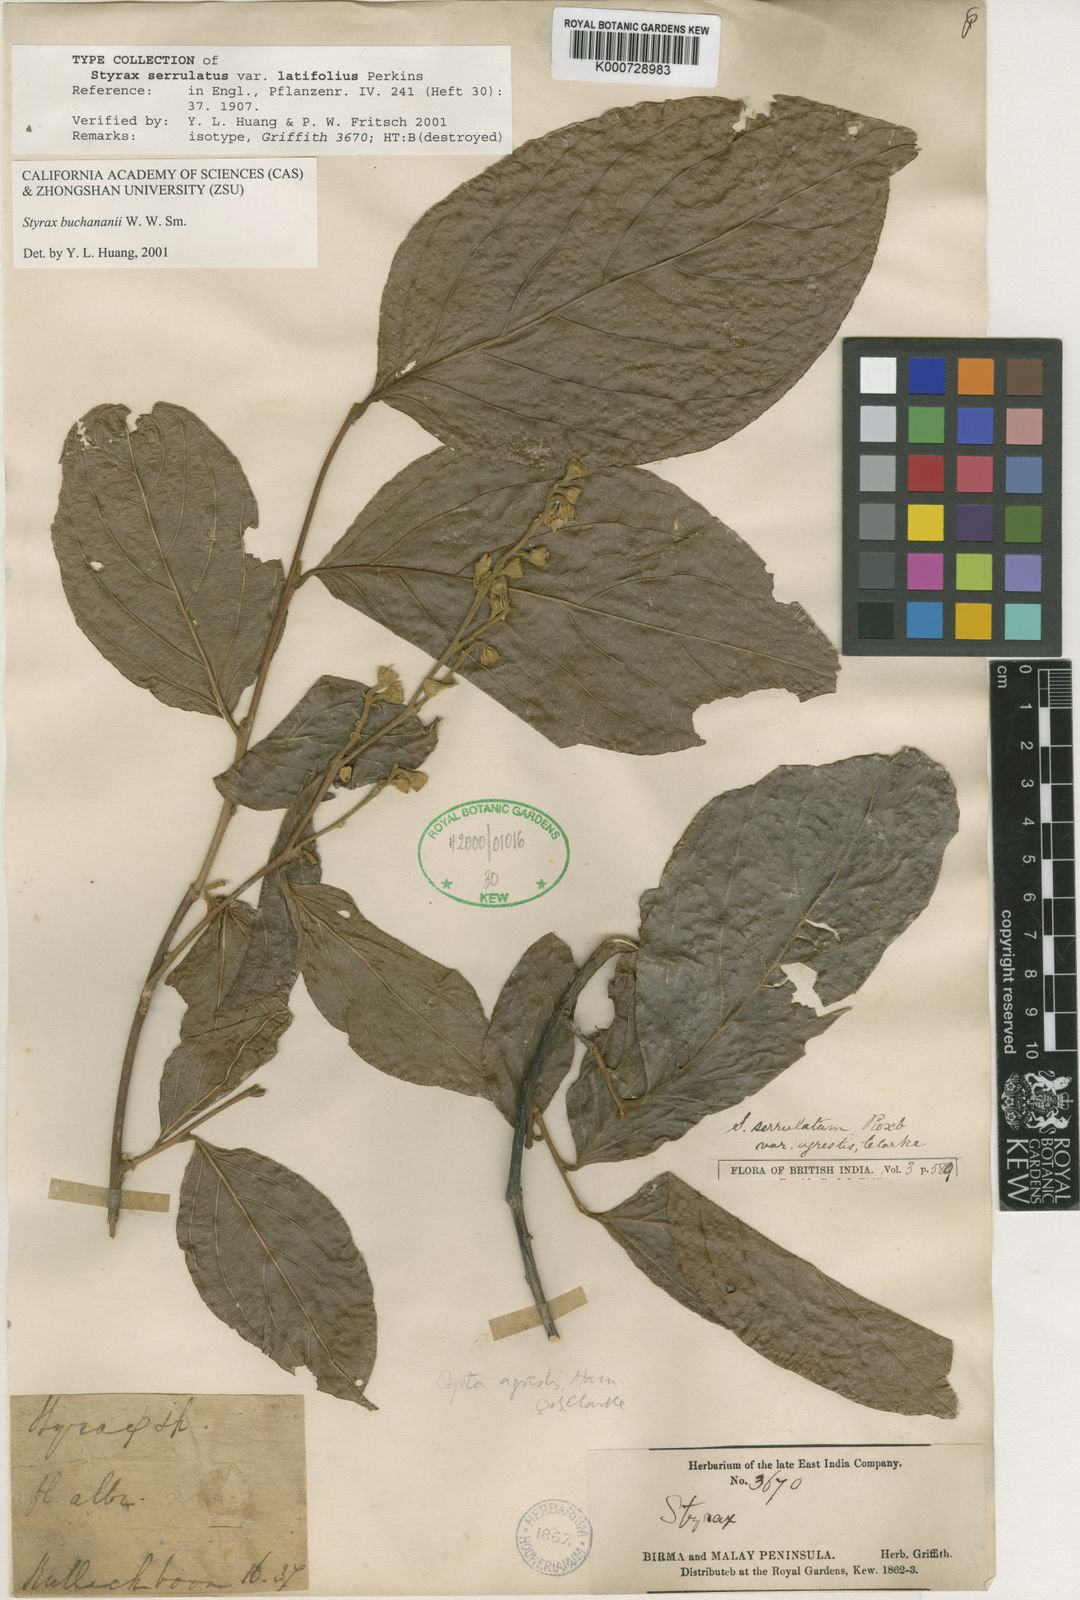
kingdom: Plantae
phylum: Tracheophyta
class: Magnoliopsida
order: Ericales
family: Styracaceae
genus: Styrax
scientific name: Styrax serrulatus
